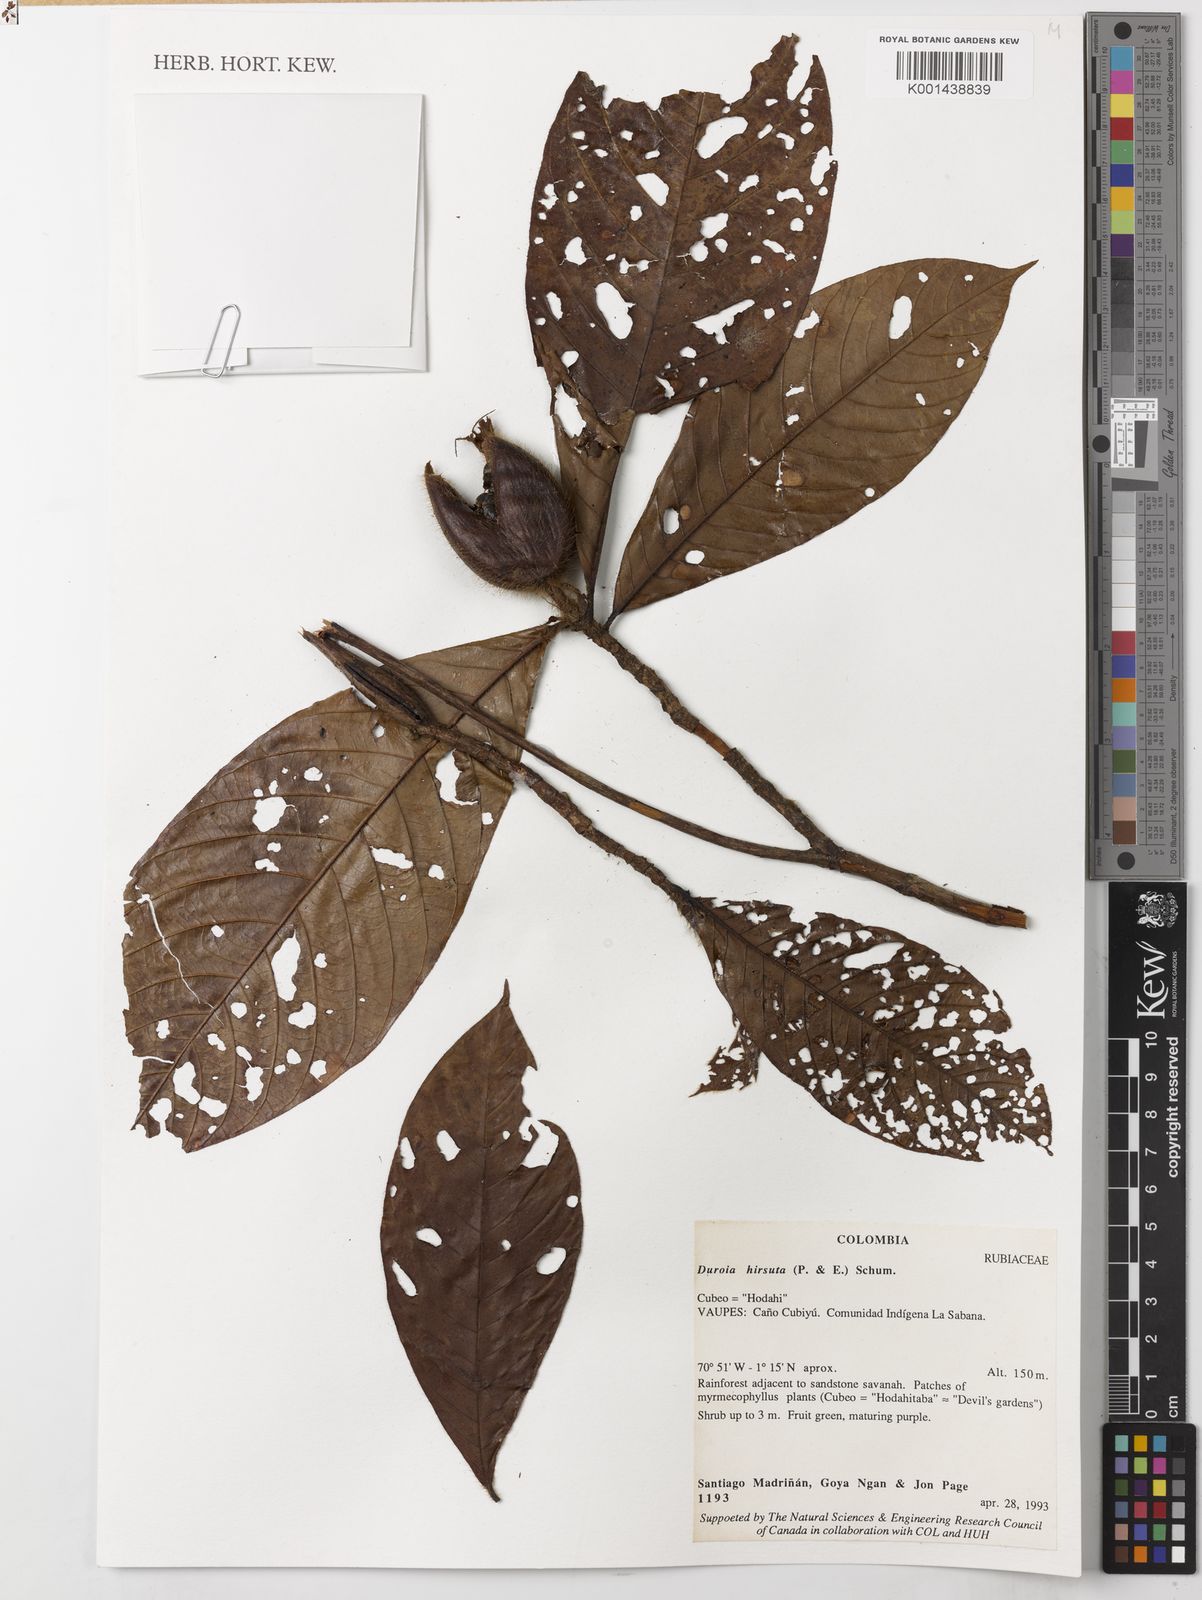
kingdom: Plantae
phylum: Tracheophyta
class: Magnoliopsida
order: Gentianales
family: Rubiaceae
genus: Duroia
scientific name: Duroia hirsuta
